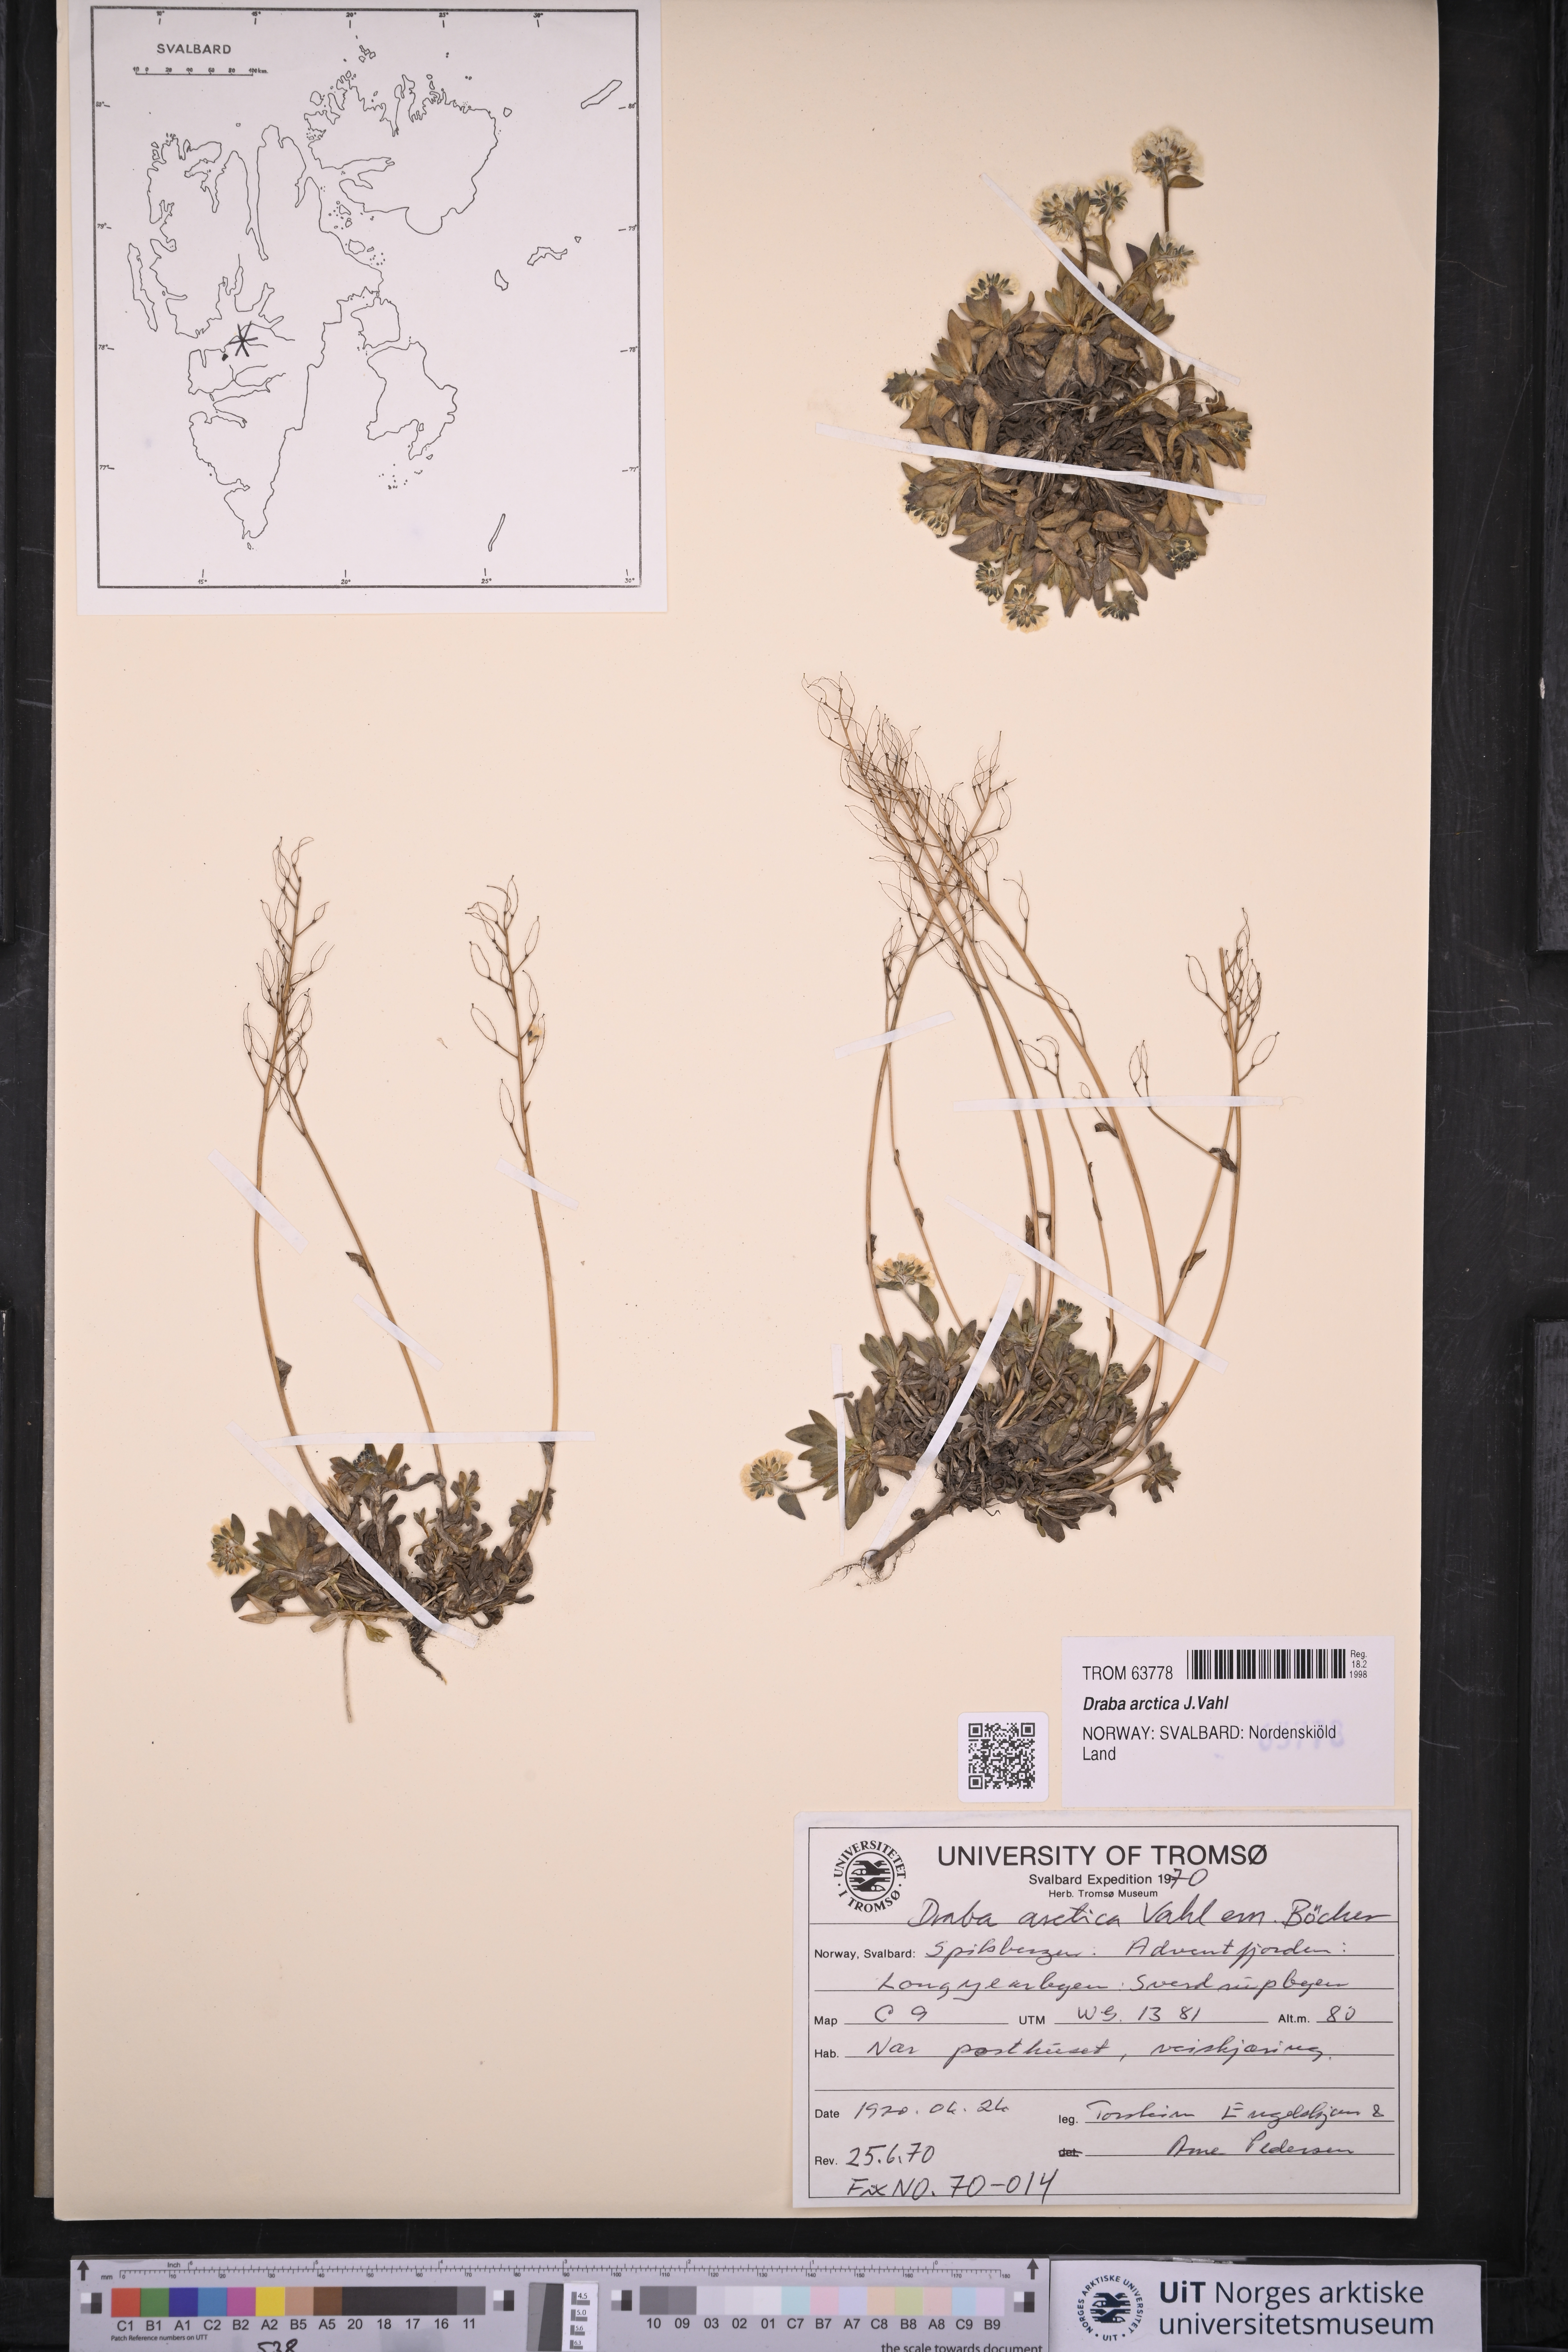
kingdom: Plantae
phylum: Tracheophyta
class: Magnoliopsida
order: Brassicales
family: Brassicaceae
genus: Draba
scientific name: Draba arctica
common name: Arctic draba
